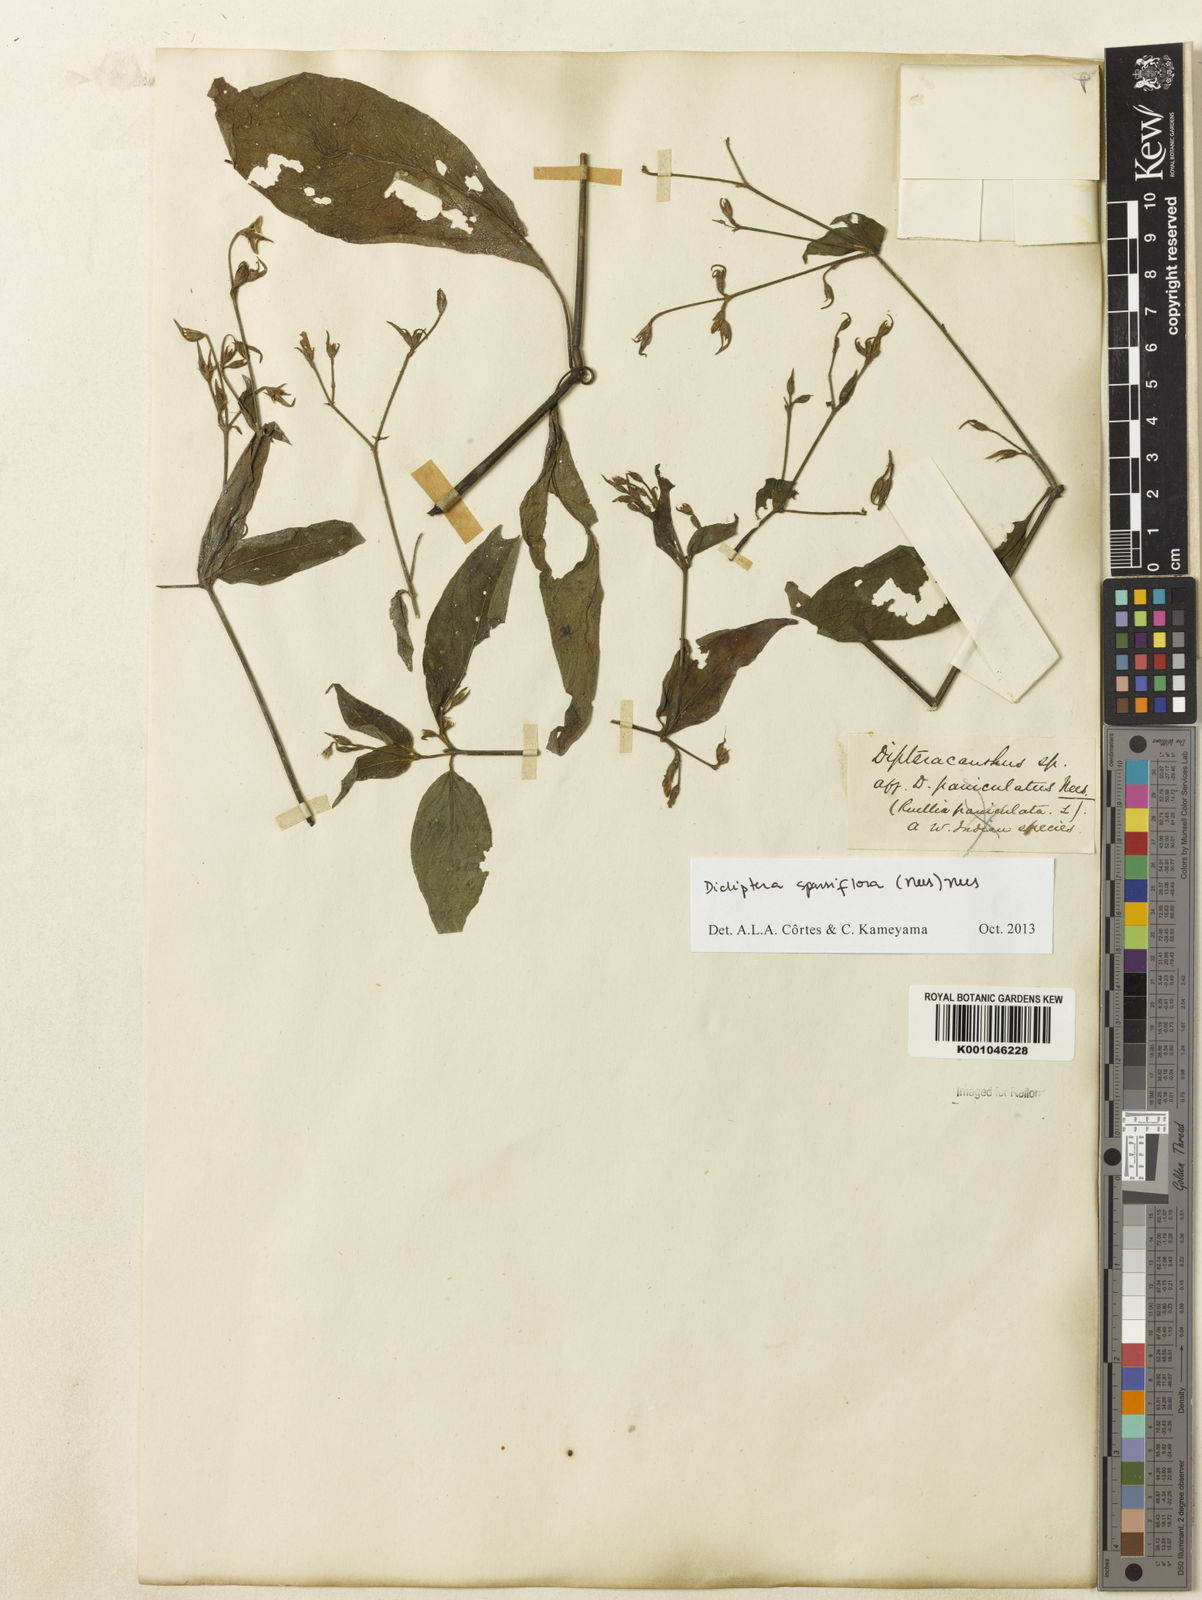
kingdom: Plantae
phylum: Tracheophyta
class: Magnoliopsida
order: Lamiales
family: Acanthaceae
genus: Dicliptera
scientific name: Dicliptera sparsiflora
